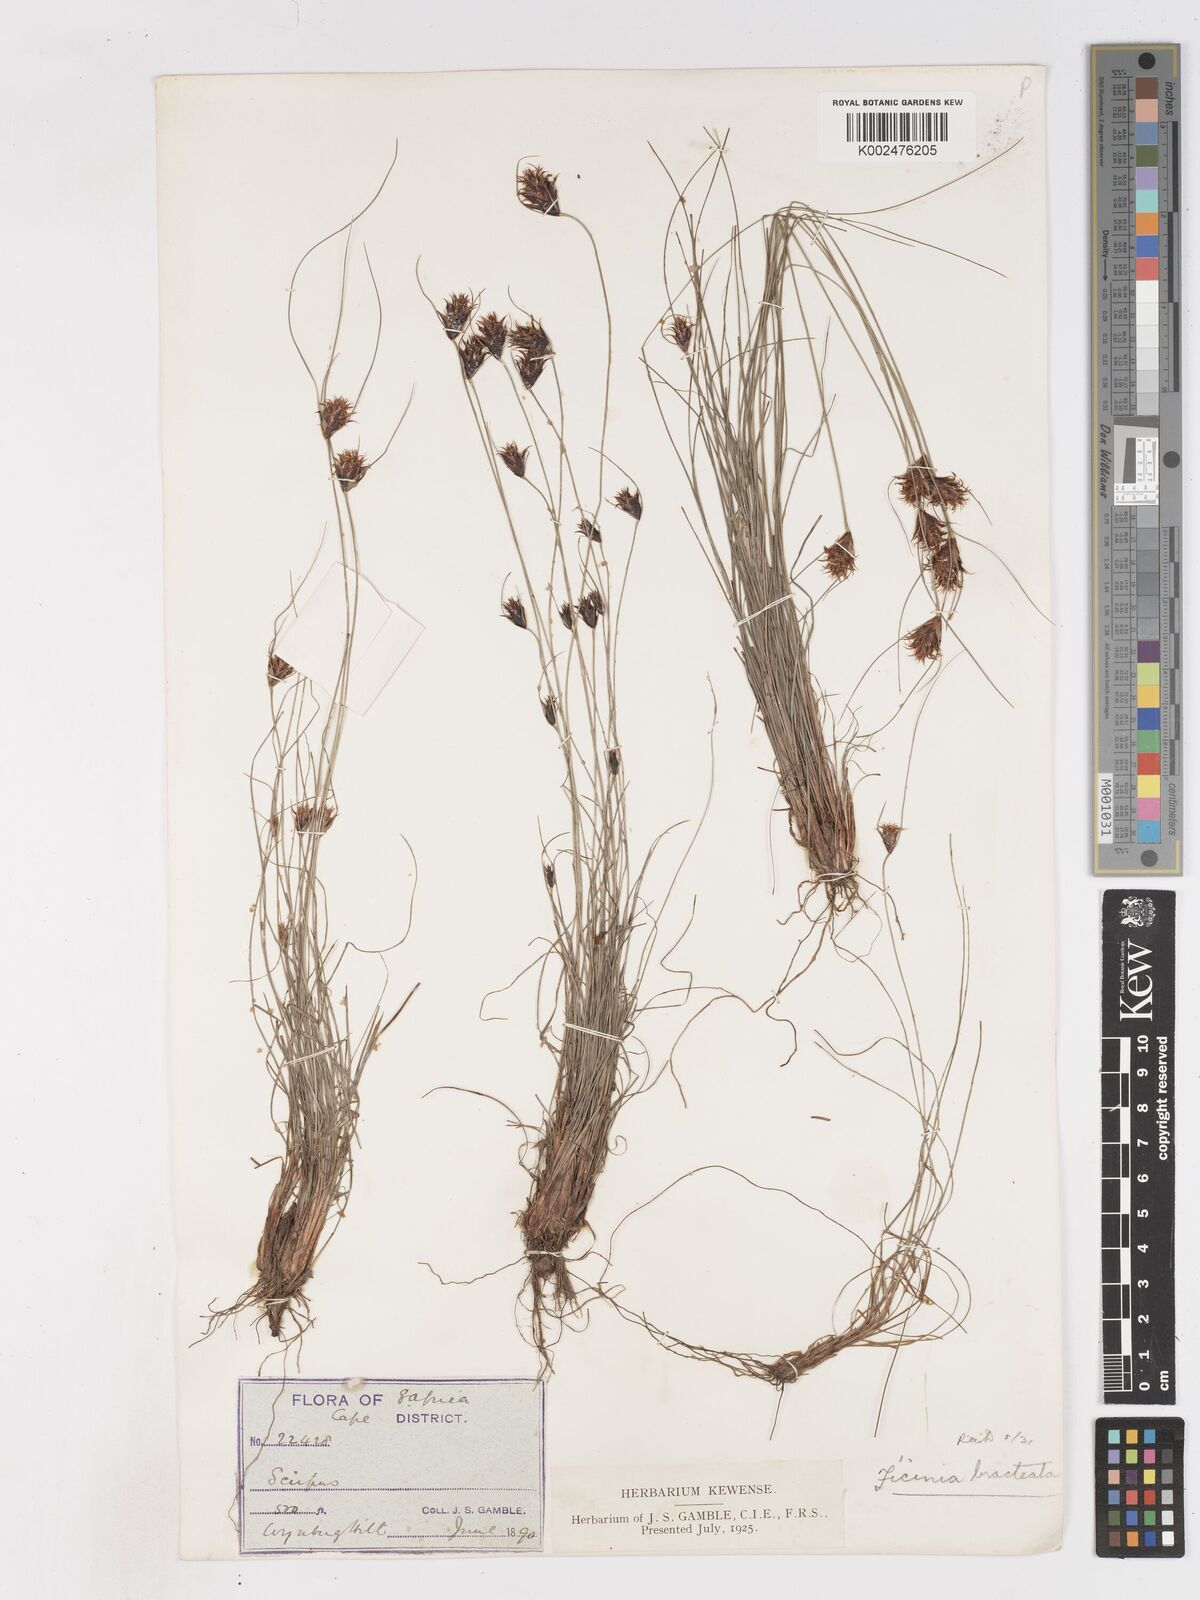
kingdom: Plantae
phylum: Tracheophyta
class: Liliopsida
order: Poales
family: Cyperaceae
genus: Ficinia
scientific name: Ficinia nigrescens
